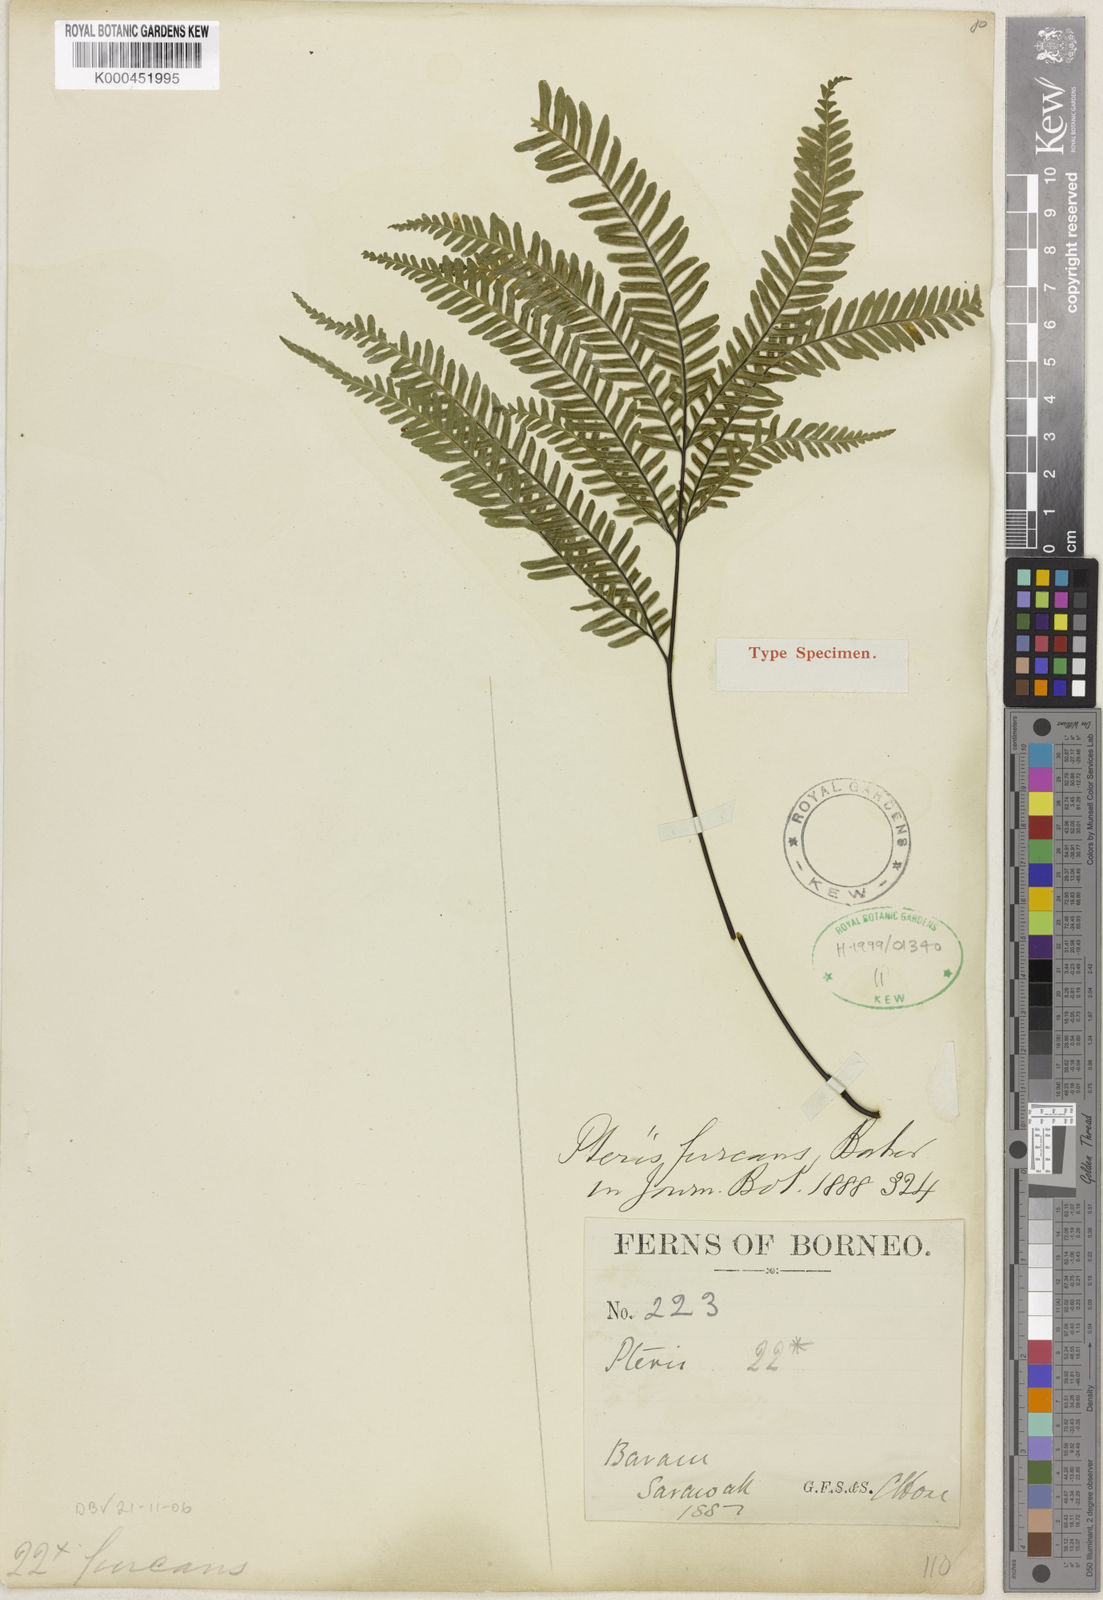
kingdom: Plantae
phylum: Tracheophyta
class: Polypodiopsida
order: Polypodiales
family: Pteridaceae
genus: Pteris
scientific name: Pteris ligulata
